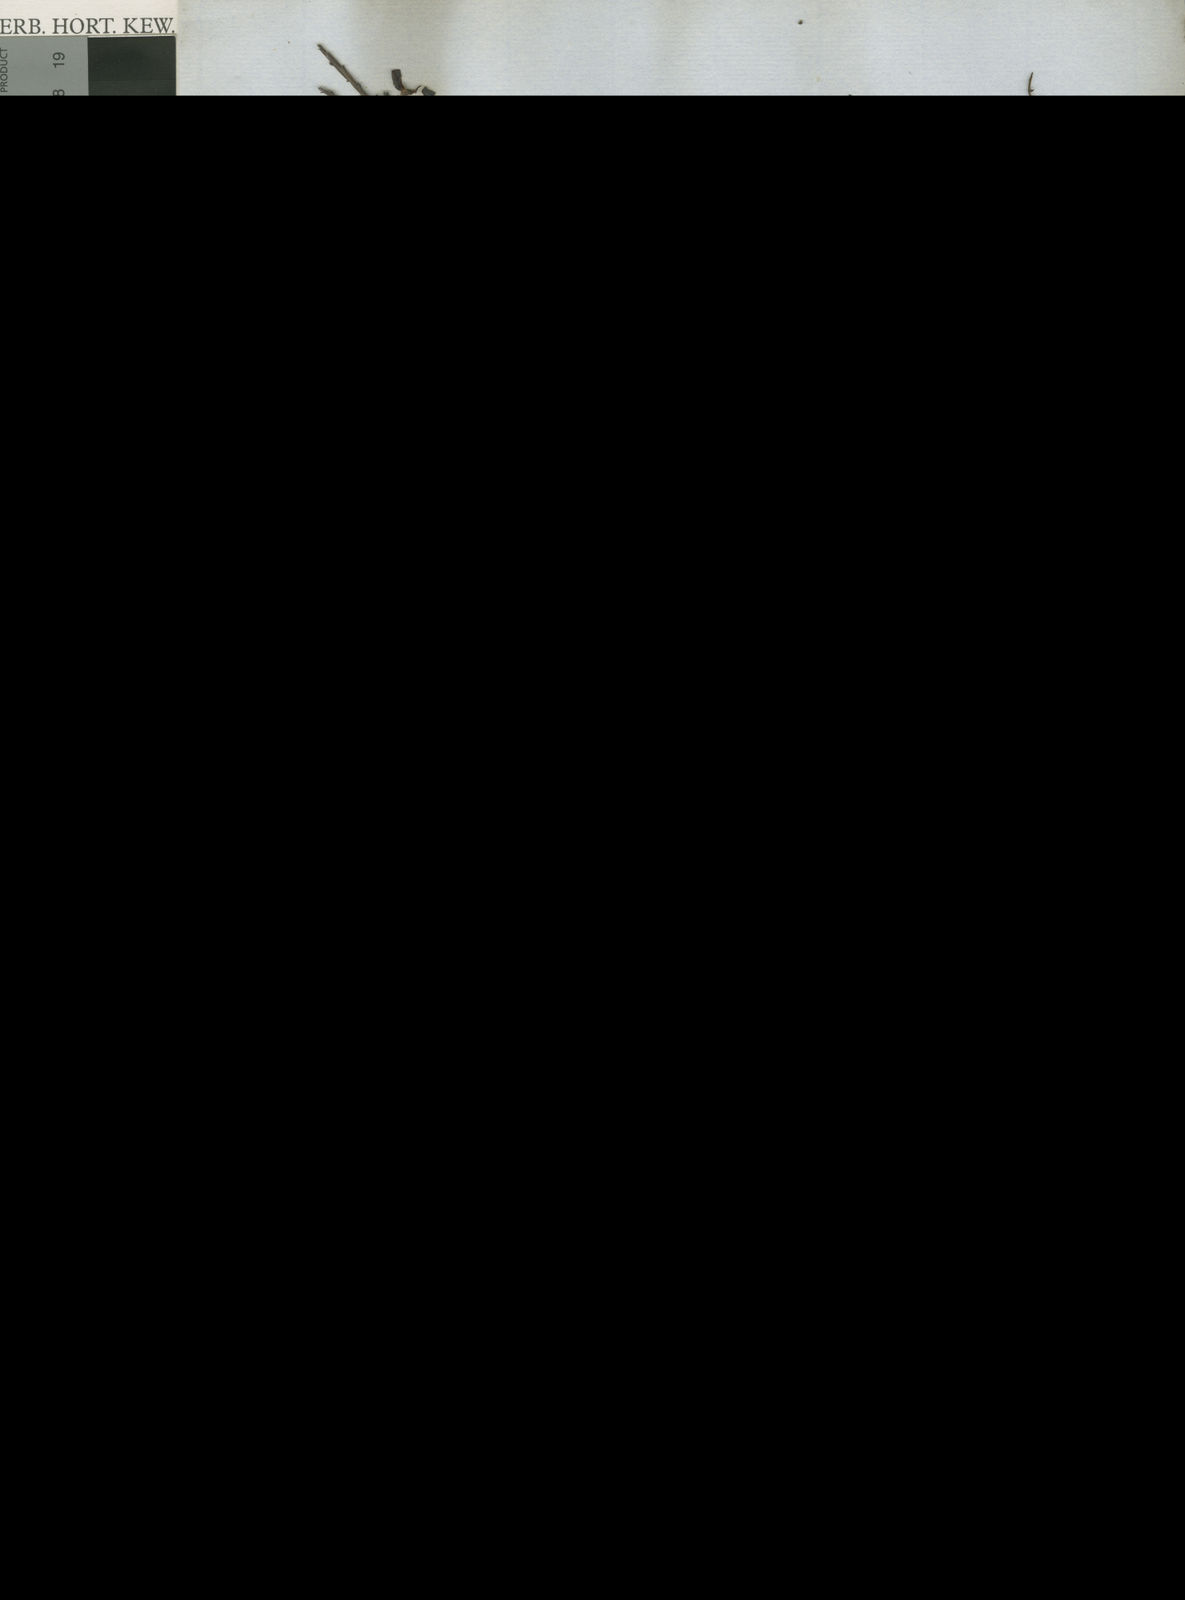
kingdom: Plantae
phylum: Tracheophyta
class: Magnoliopsida
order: Fabales
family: Fabaceae
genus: Bossiaea
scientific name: Bossiaea ensata
